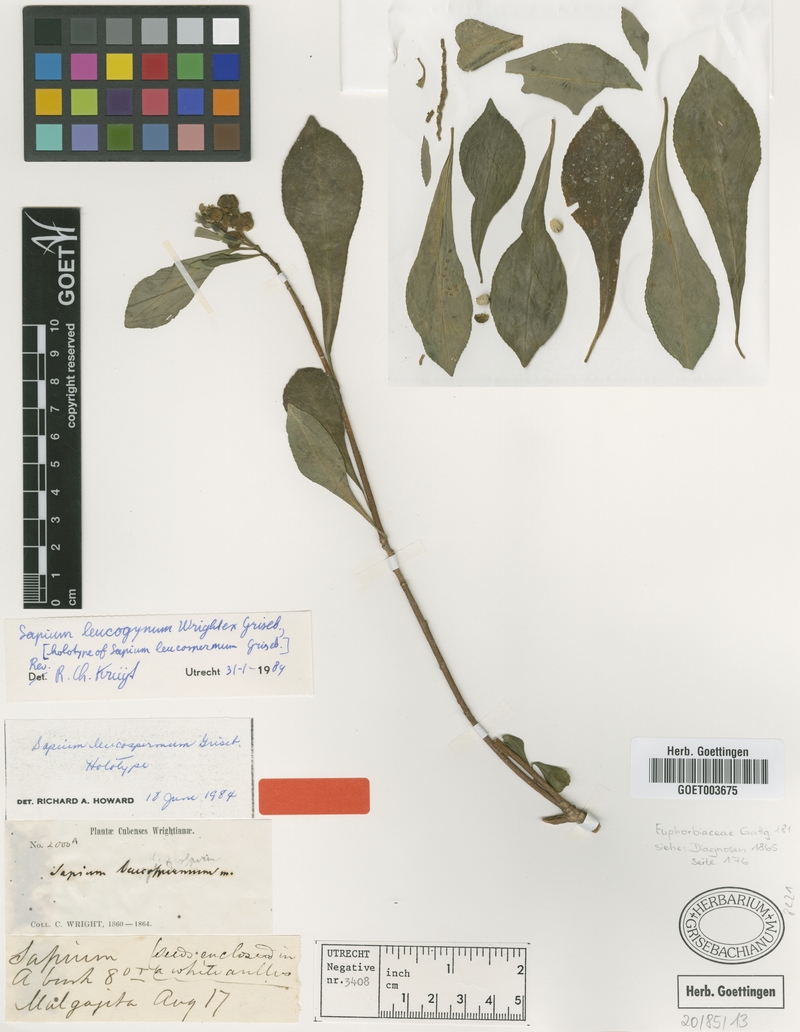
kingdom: Plantae
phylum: Tracheophyta
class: Magnoliopsida
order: Malpighiales
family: Euphorbiaceae
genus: Sapium
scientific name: Sapium leucogynum
